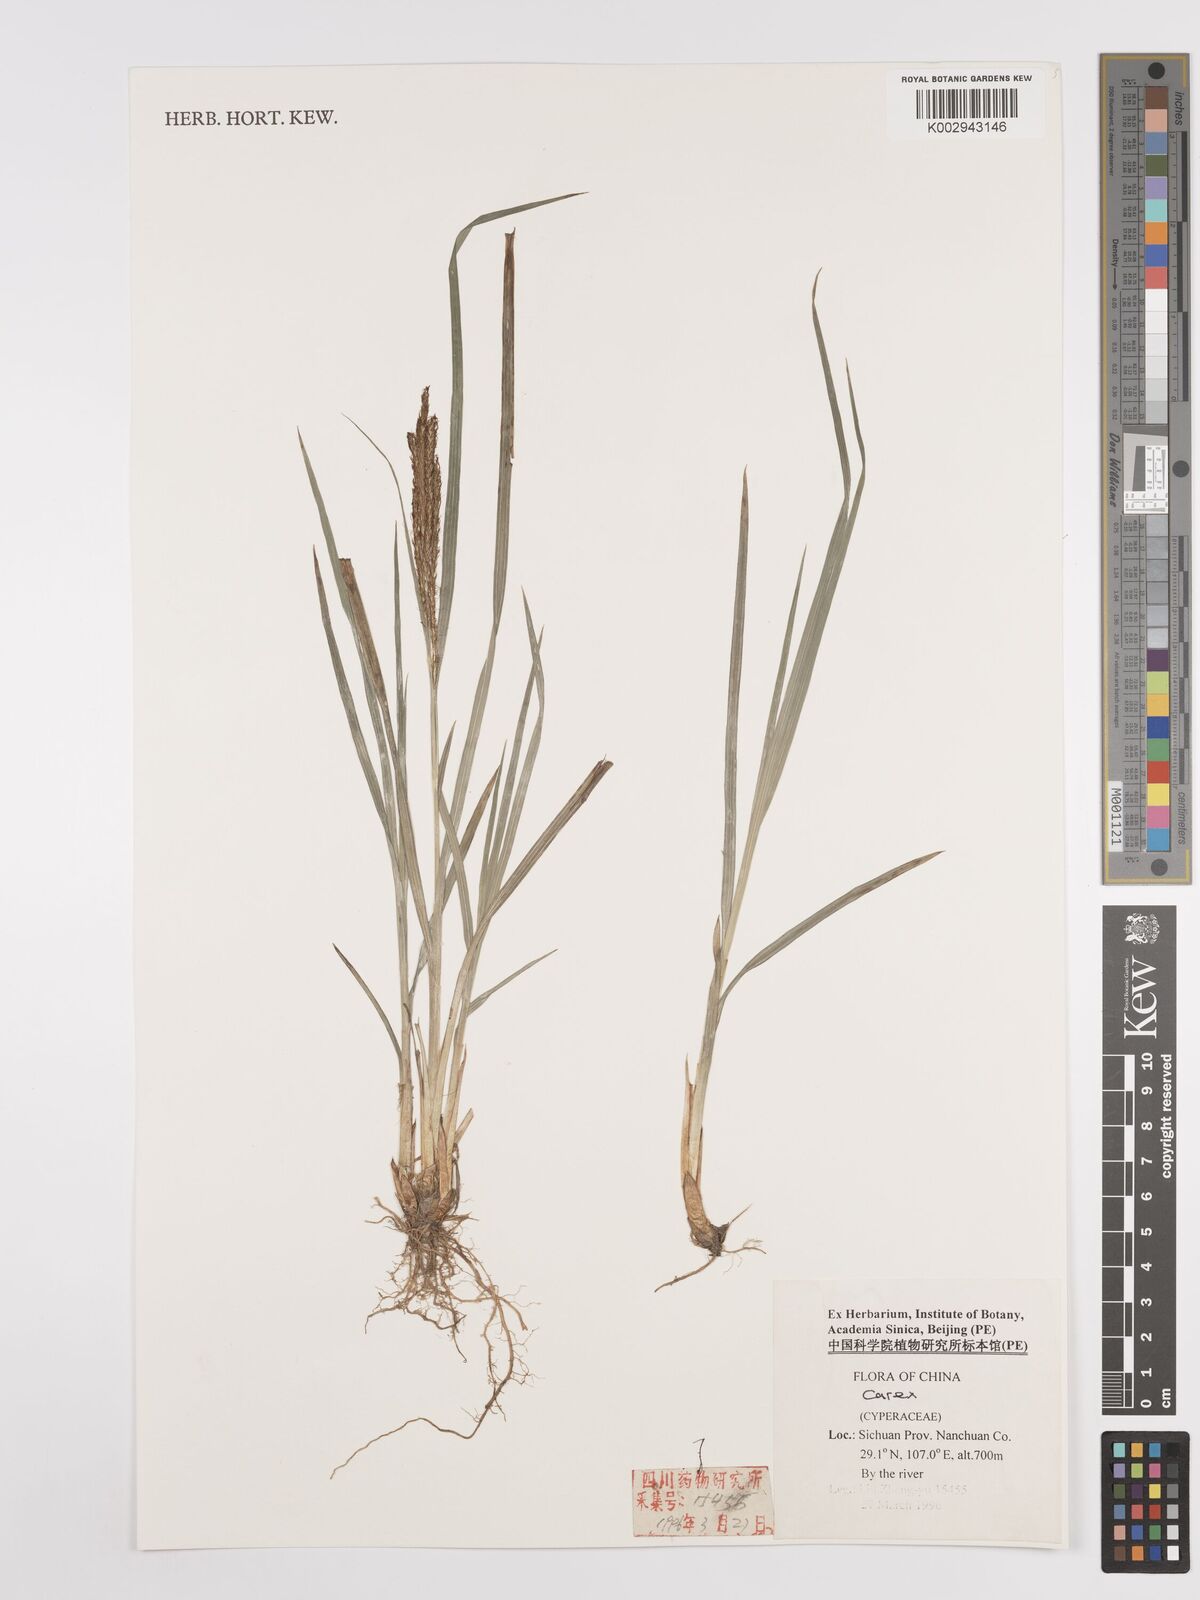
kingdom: Plantae
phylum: Tracheophyta
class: Liliopsida
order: Poales
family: Cyperaceae
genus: Carex
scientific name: Carex
